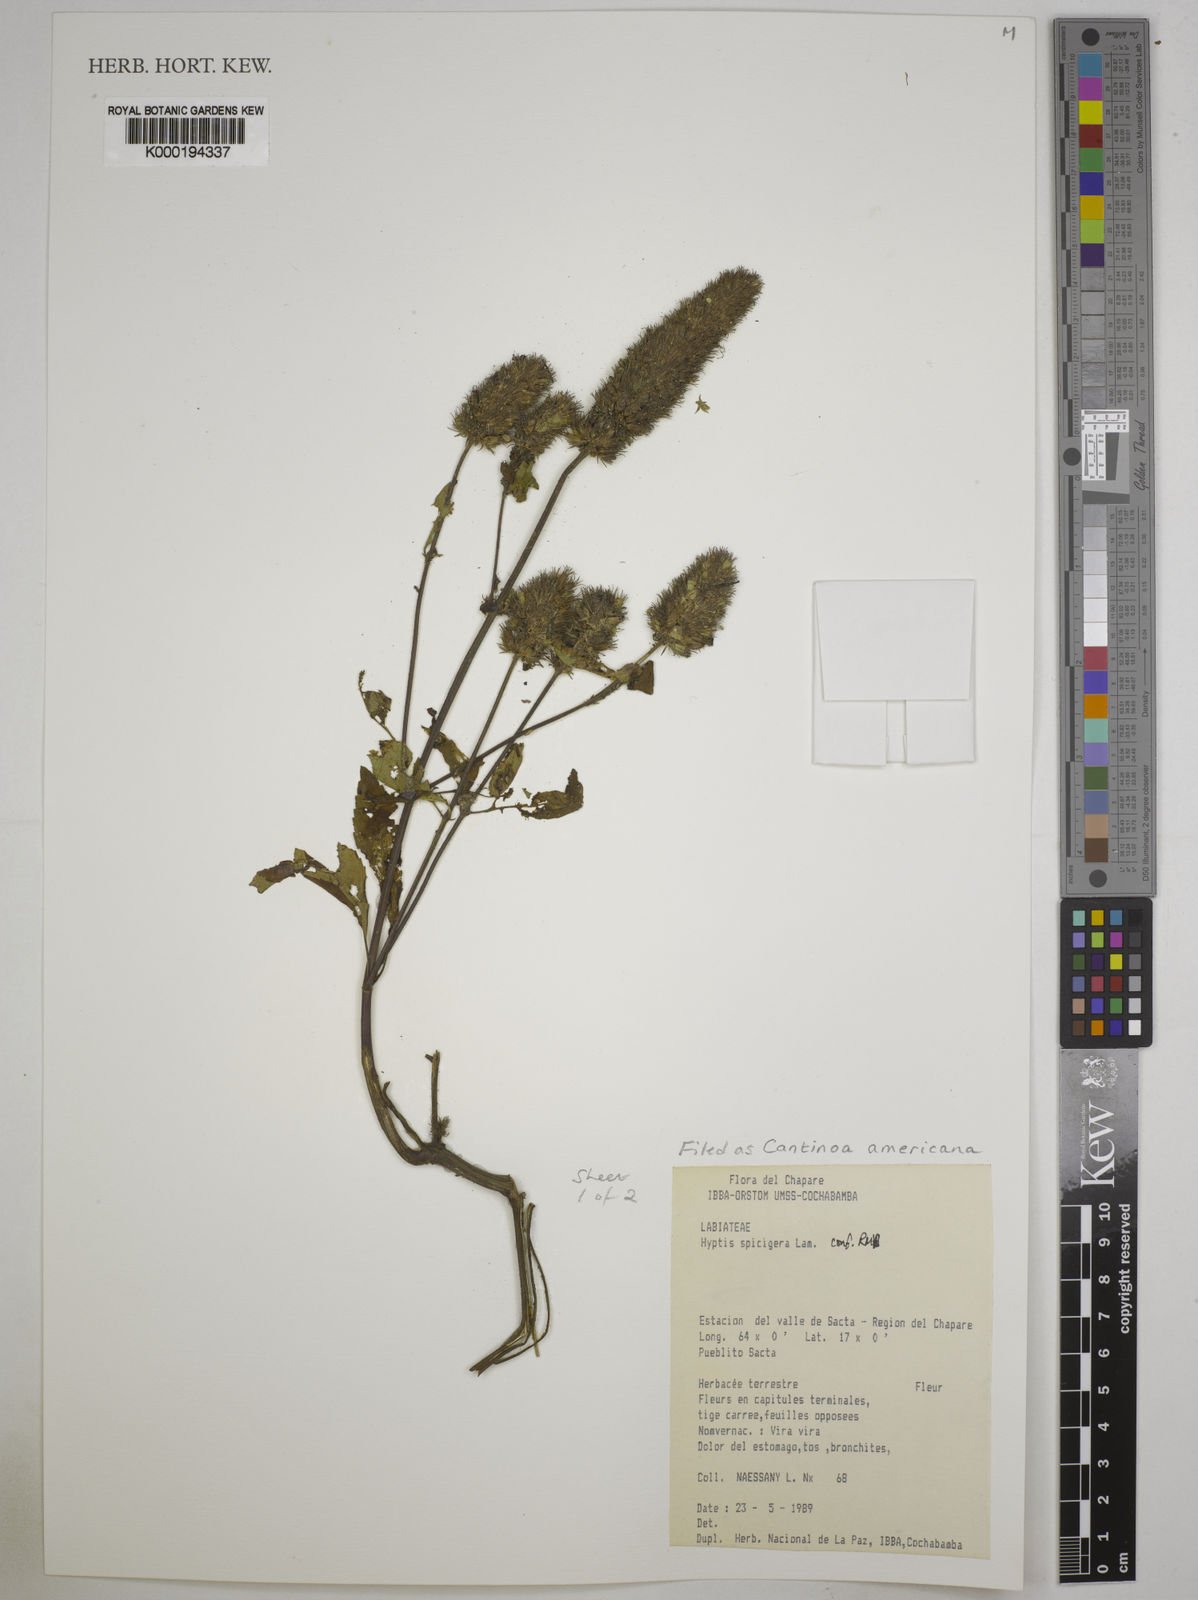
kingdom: Plantae
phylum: Tracheophyta
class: Magnoliopsida
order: Lamiales
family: Lamiaceae
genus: Cantinoa
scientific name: Cantinoa americana
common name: Black-sesame
